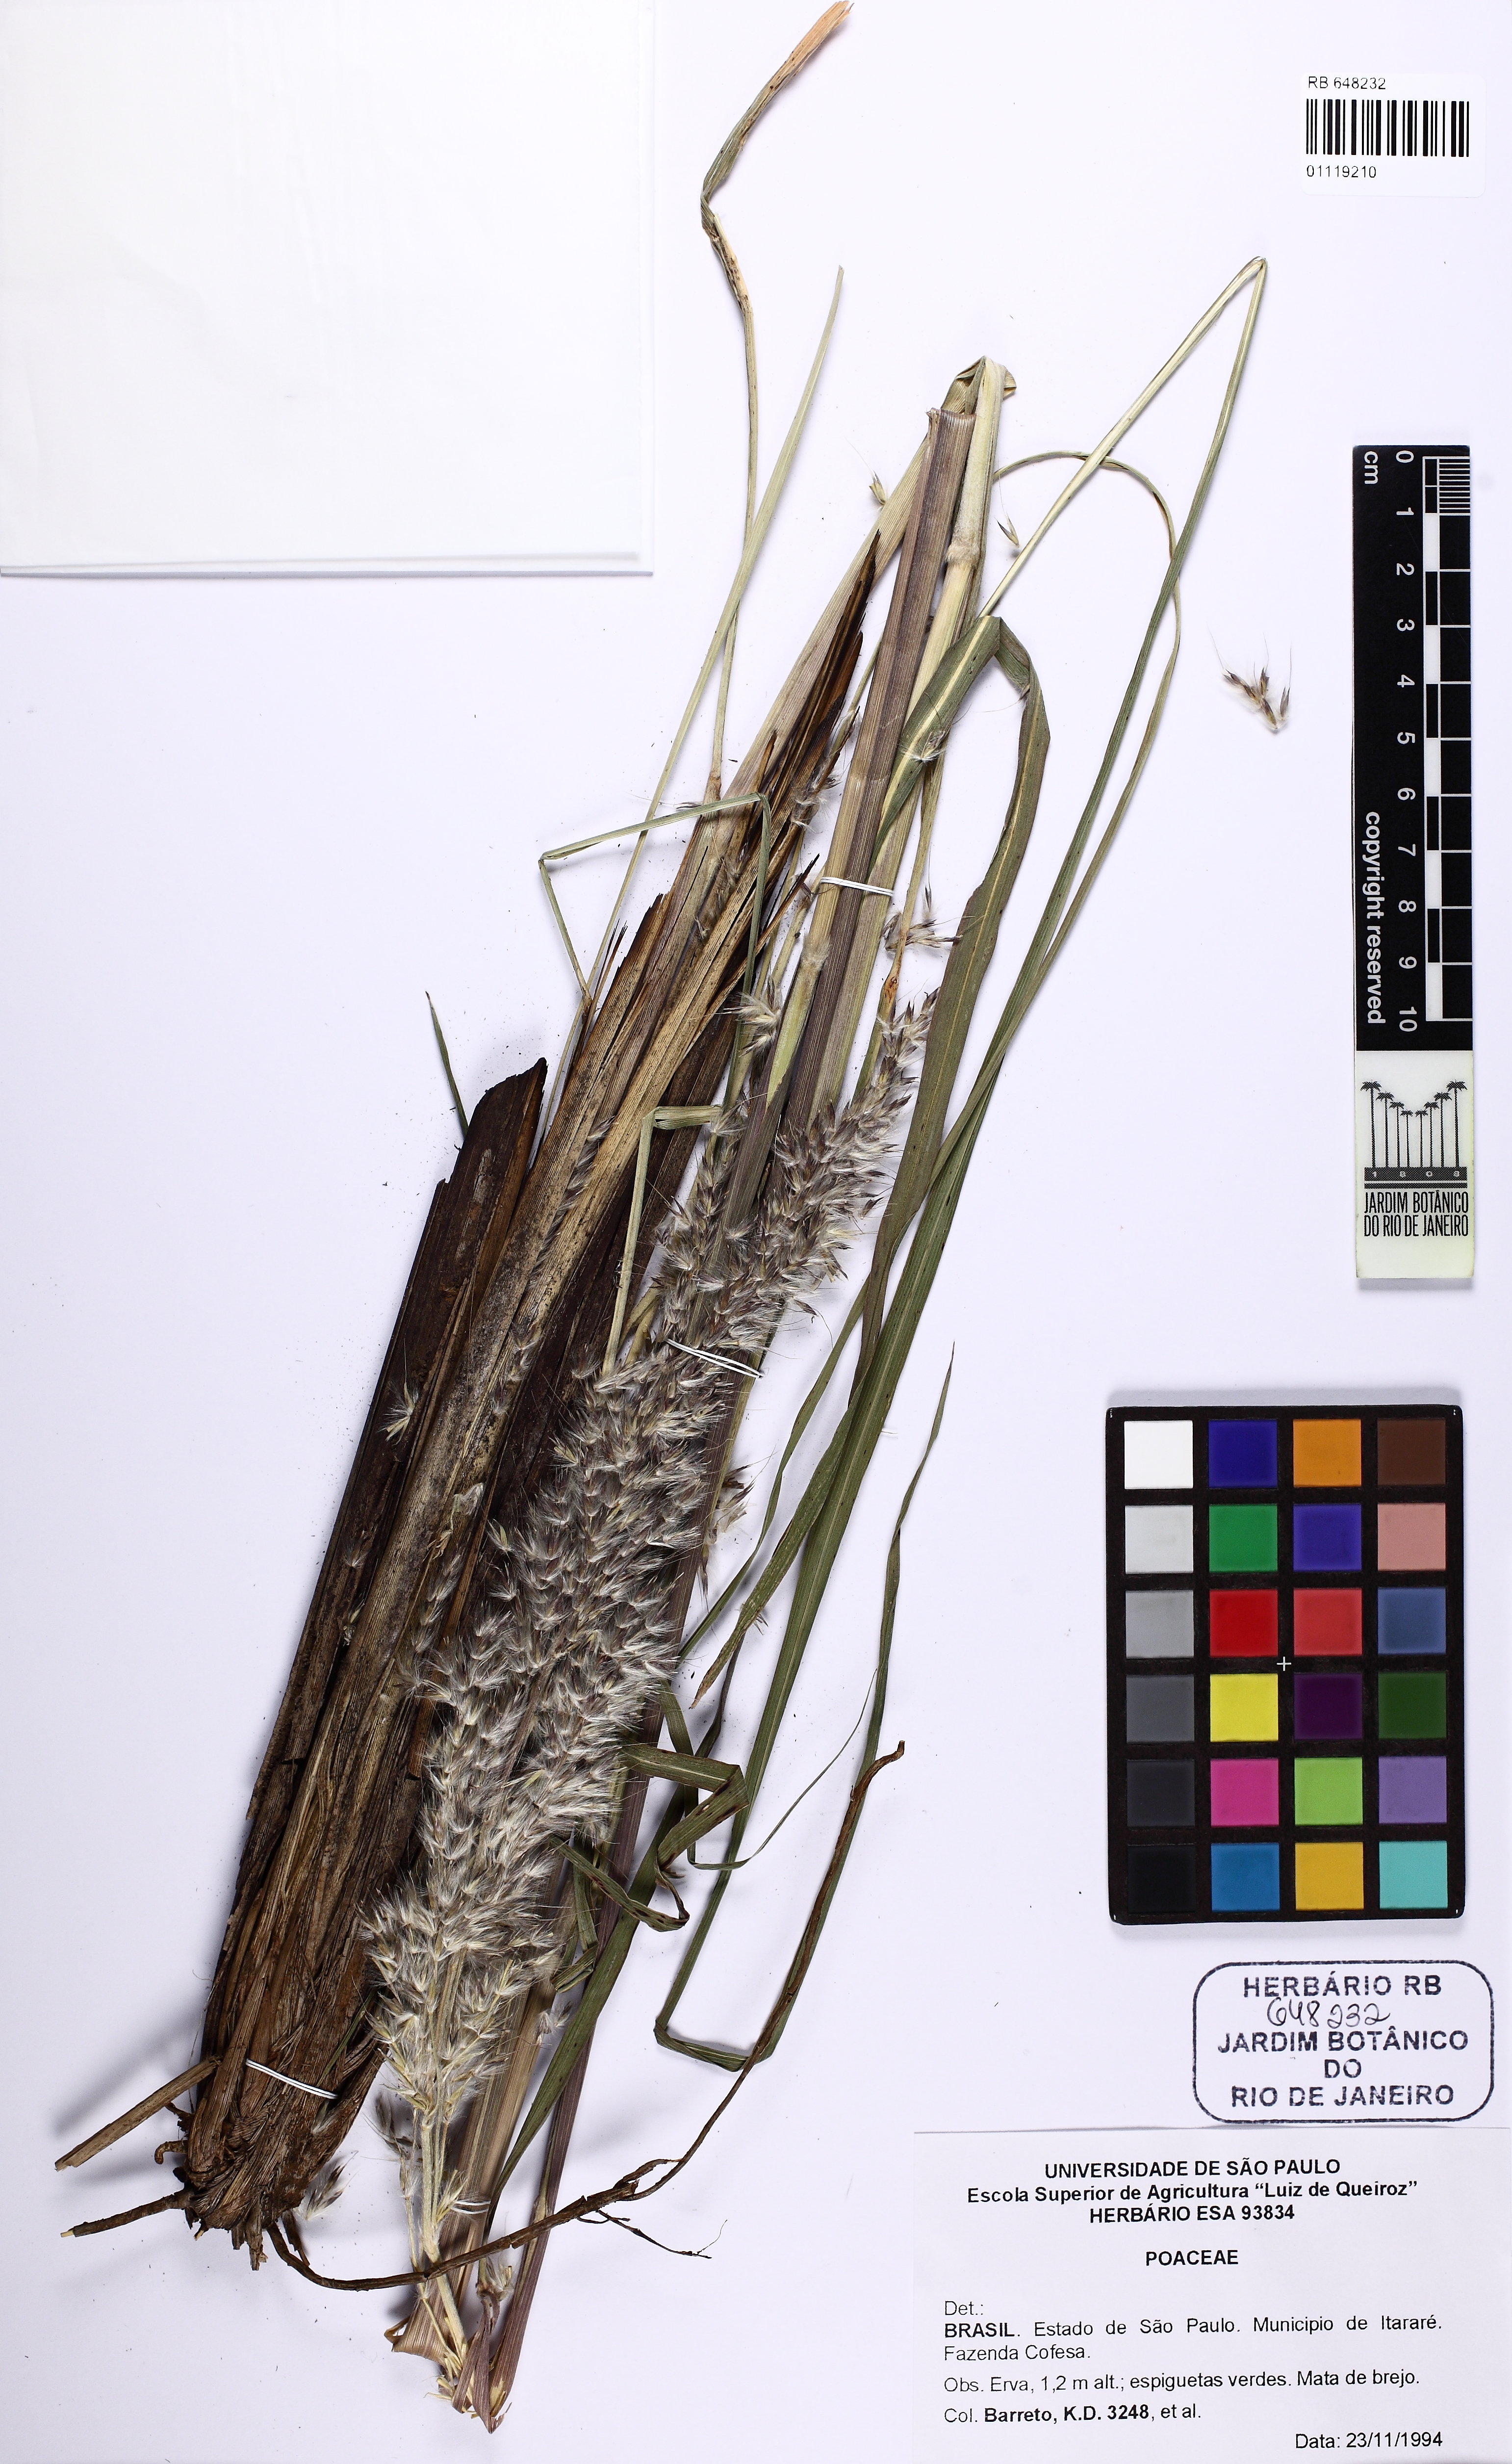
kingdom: Plantae
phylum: Tracheophyta
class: Liliopsida
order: Poales
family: Poaceae
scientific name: Poaceae
